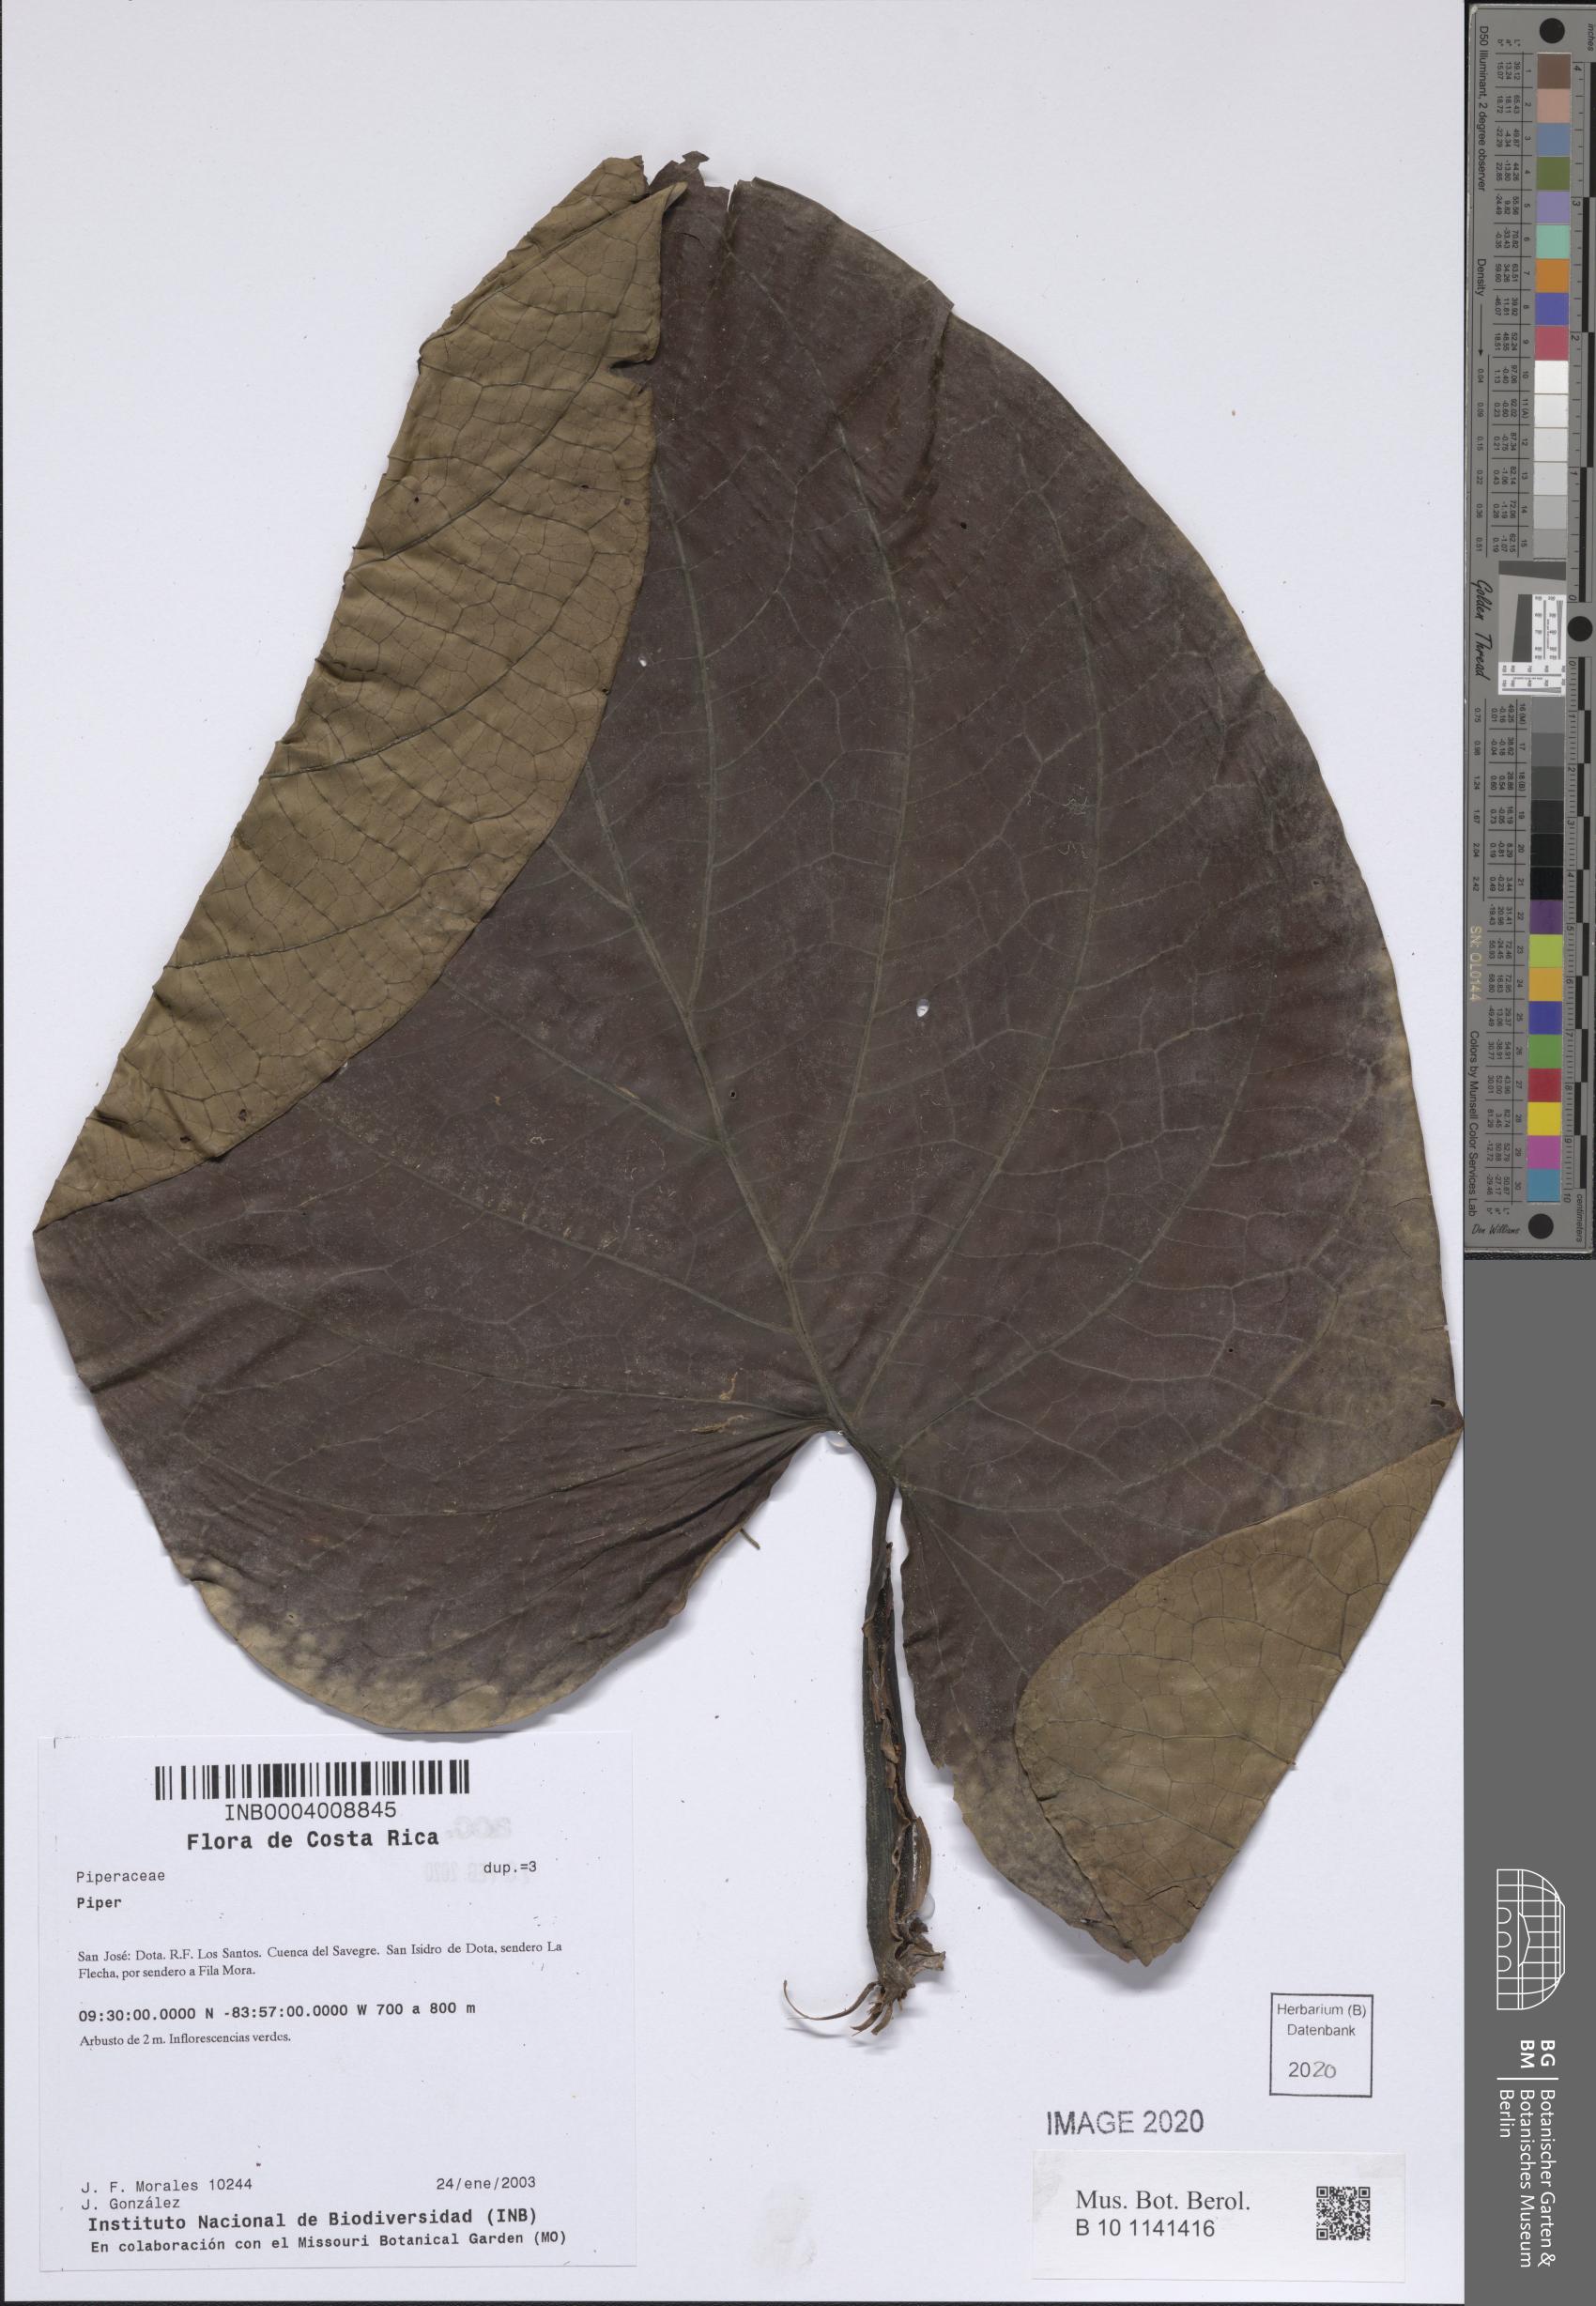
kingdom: Plantae
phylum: Tracheophyta
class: Magnoliopsida
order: Piperales
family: Piperaceae
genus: Piper
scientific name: Piper
